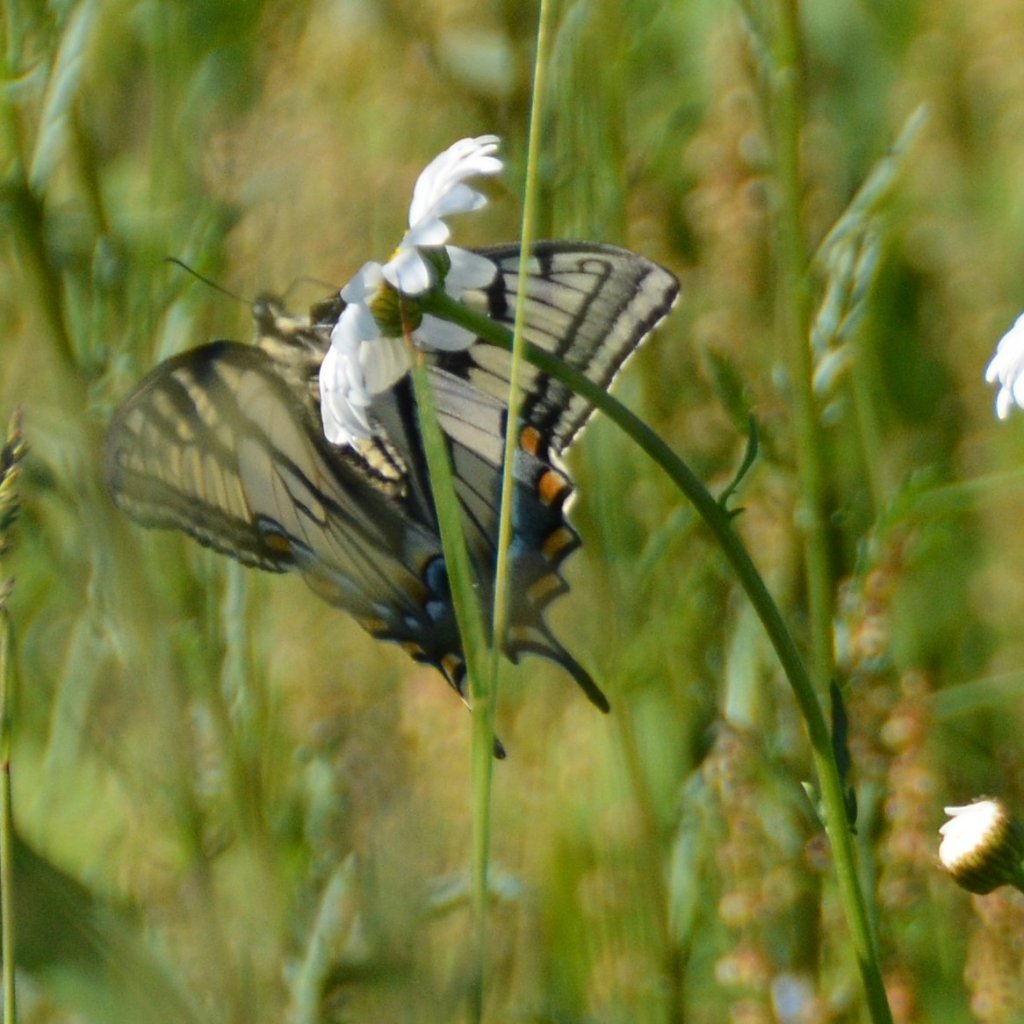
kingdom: Animalia
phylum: Arthropoda
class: Insecta
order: Lepidoptera
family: Papilionidae
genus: Pterourus
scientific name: Pterourus canadensis
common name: Canadian Tiger Swallowtail
